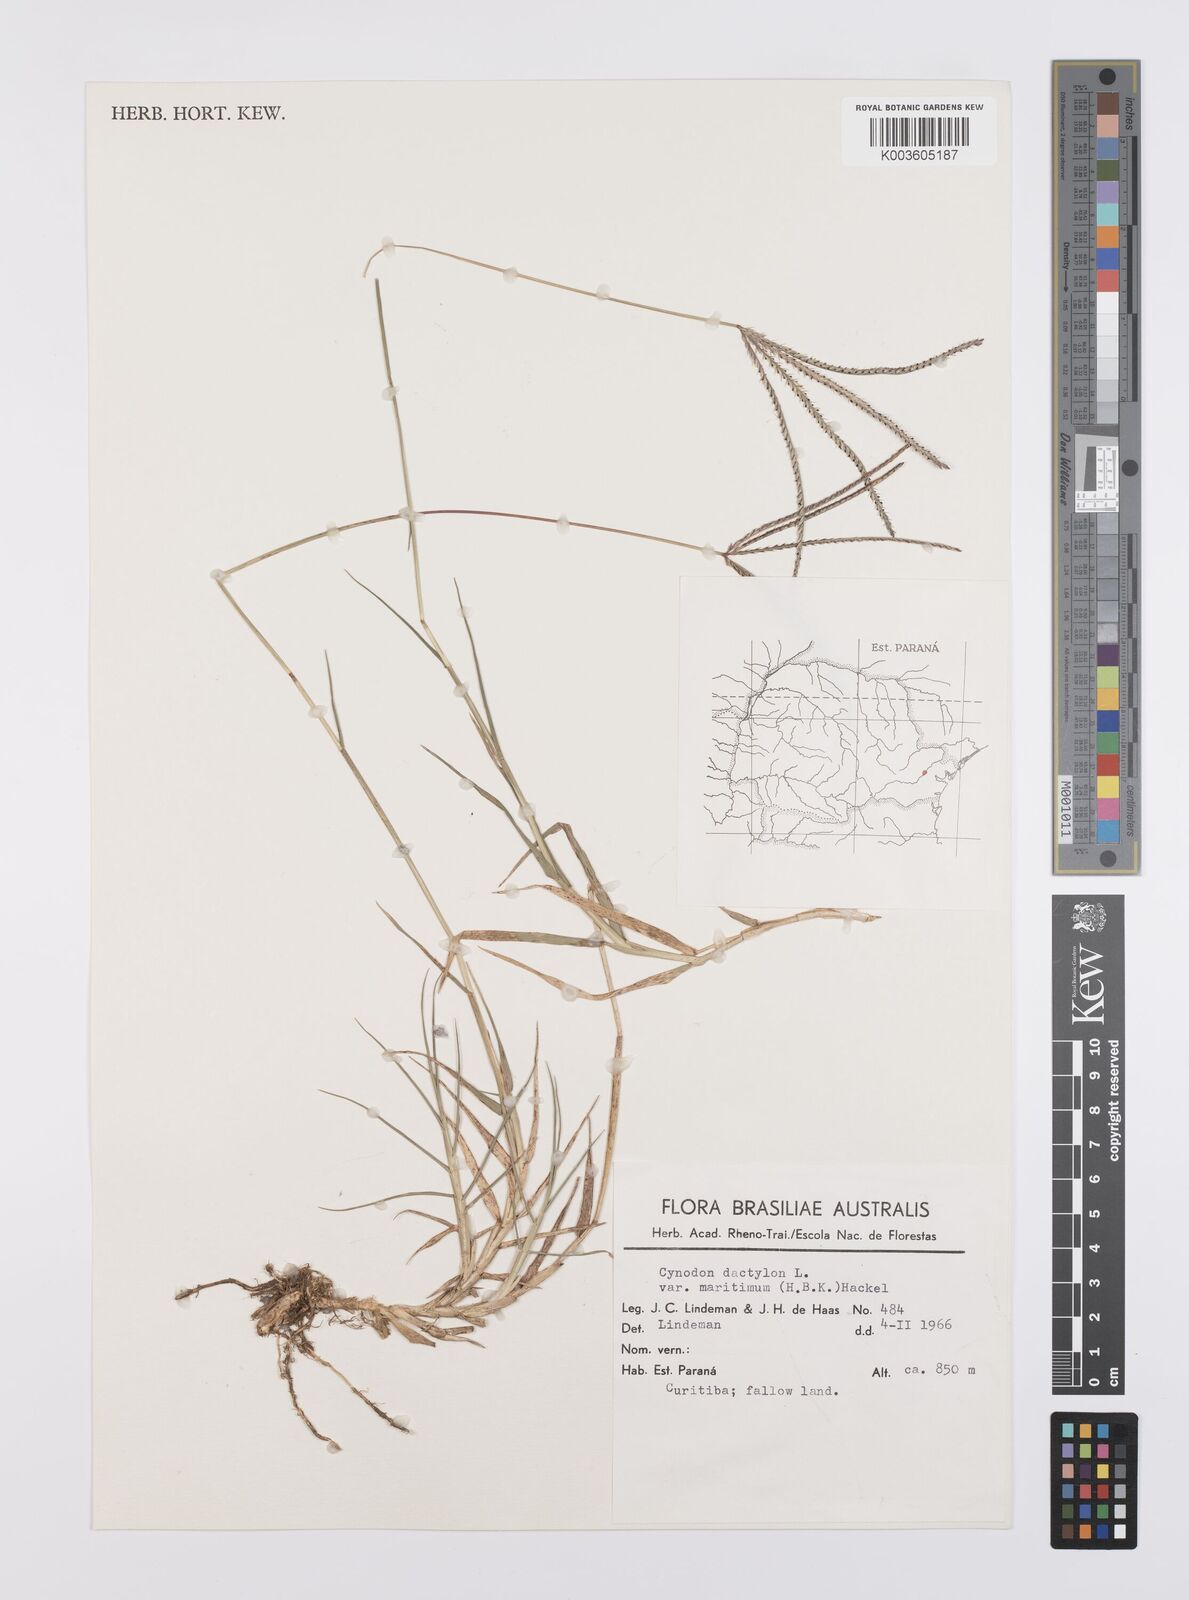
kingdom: Plantae
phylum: Tracheophyta
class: Liliopsida
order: Poales
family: Poaceae
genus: Cynodon
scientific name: Cynodon dactylon
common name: Bermuda grass
